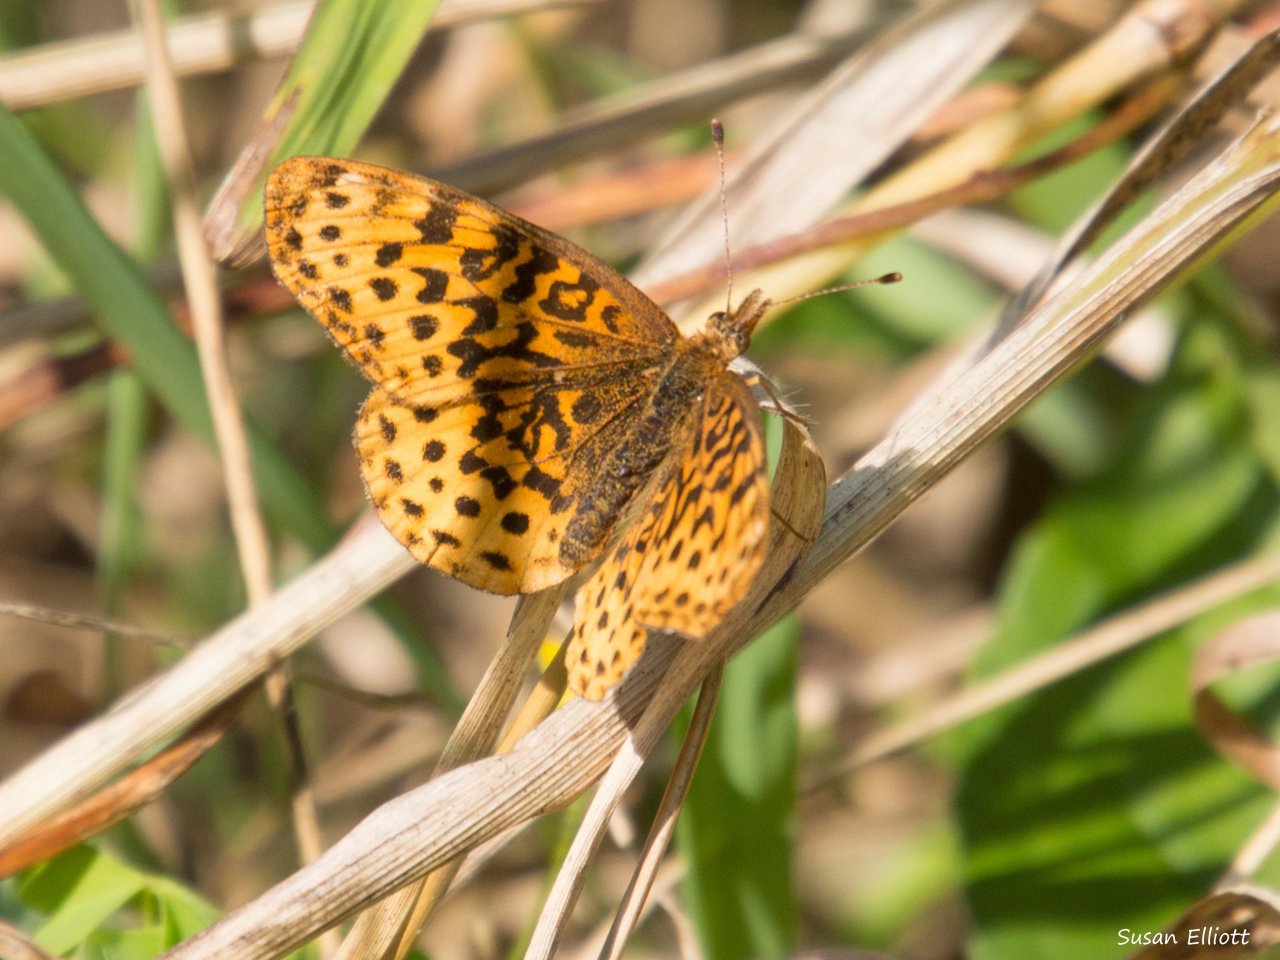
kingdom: Animalia
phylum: Arthropoda
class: Insecta
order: Lepidoptera
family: Nymphalidae
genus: Clossiana
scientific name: Clossiana toddi
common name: Meadow Fritillary
